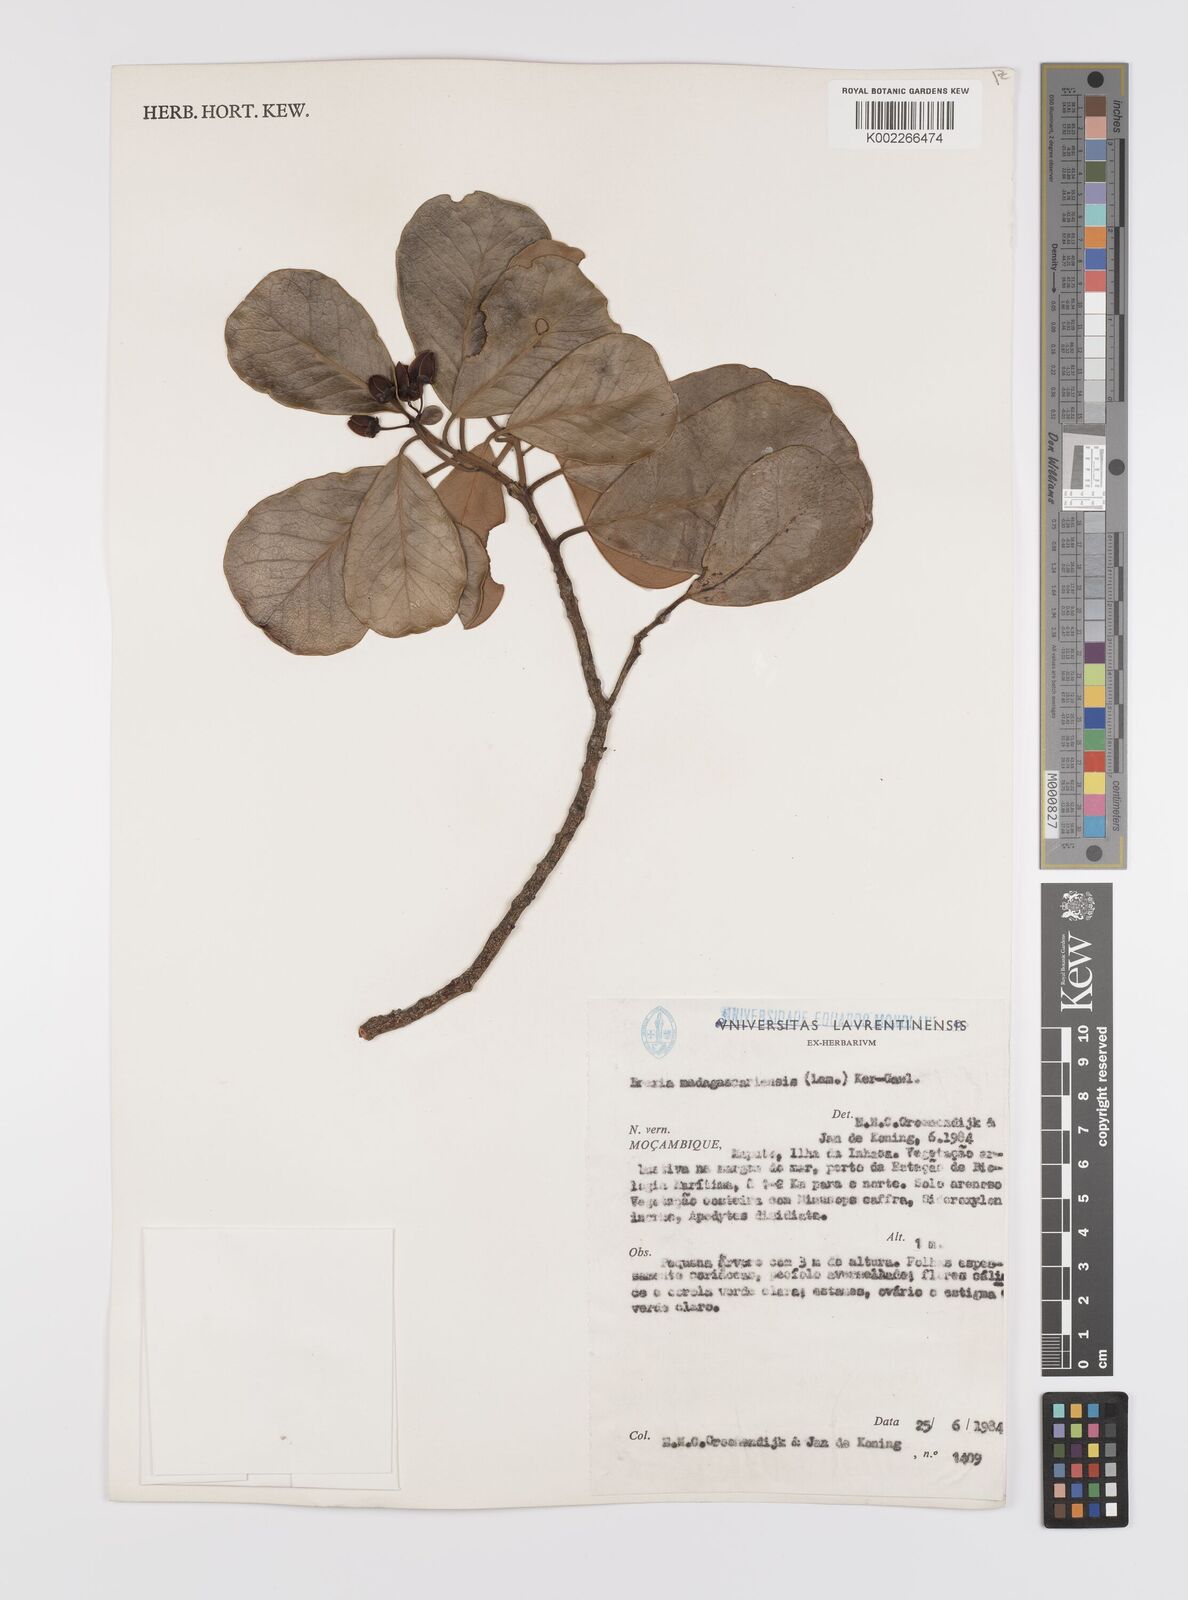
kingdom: Plantae
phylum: Tracheophyta
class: Magnoliopsida
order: Celastrales
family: Celastraceae
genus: Brexia
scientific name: Brexia madagascariensis
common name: Brexia
